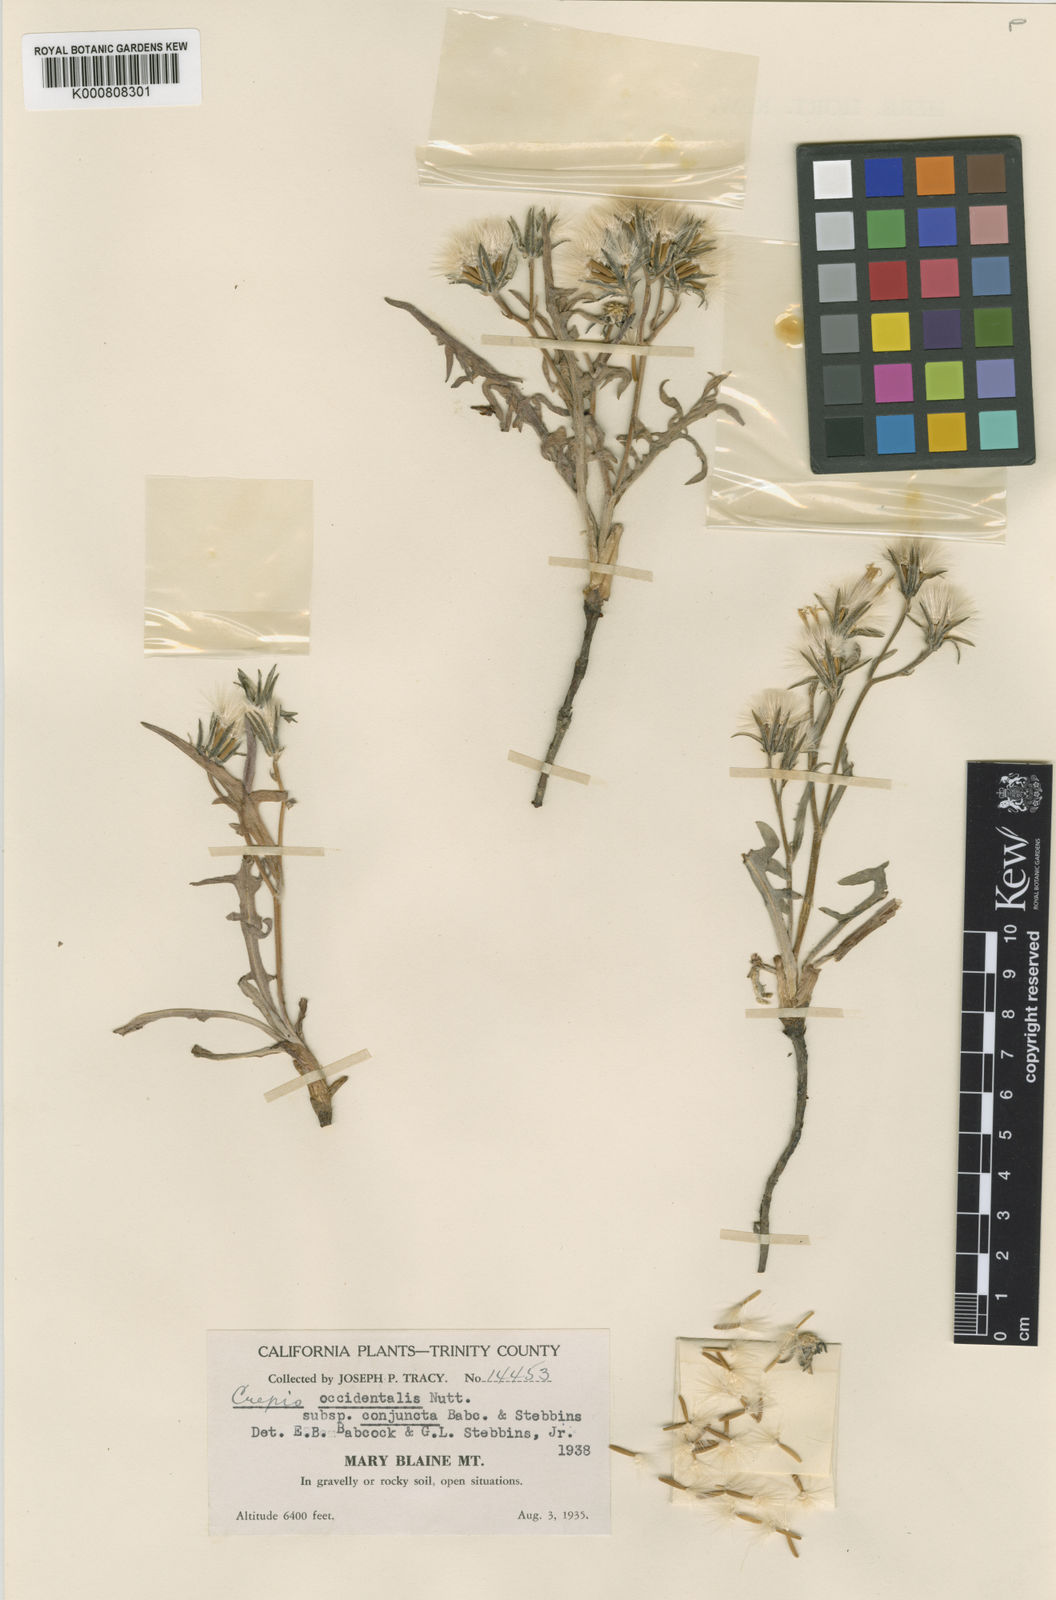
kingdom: Plantae
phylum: Tracheophyta
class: Magnoliopsida
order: Asterales
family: Asteraceae
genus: Crepis
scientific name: Crepis occidentalis
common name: Gray hawk's-beard
